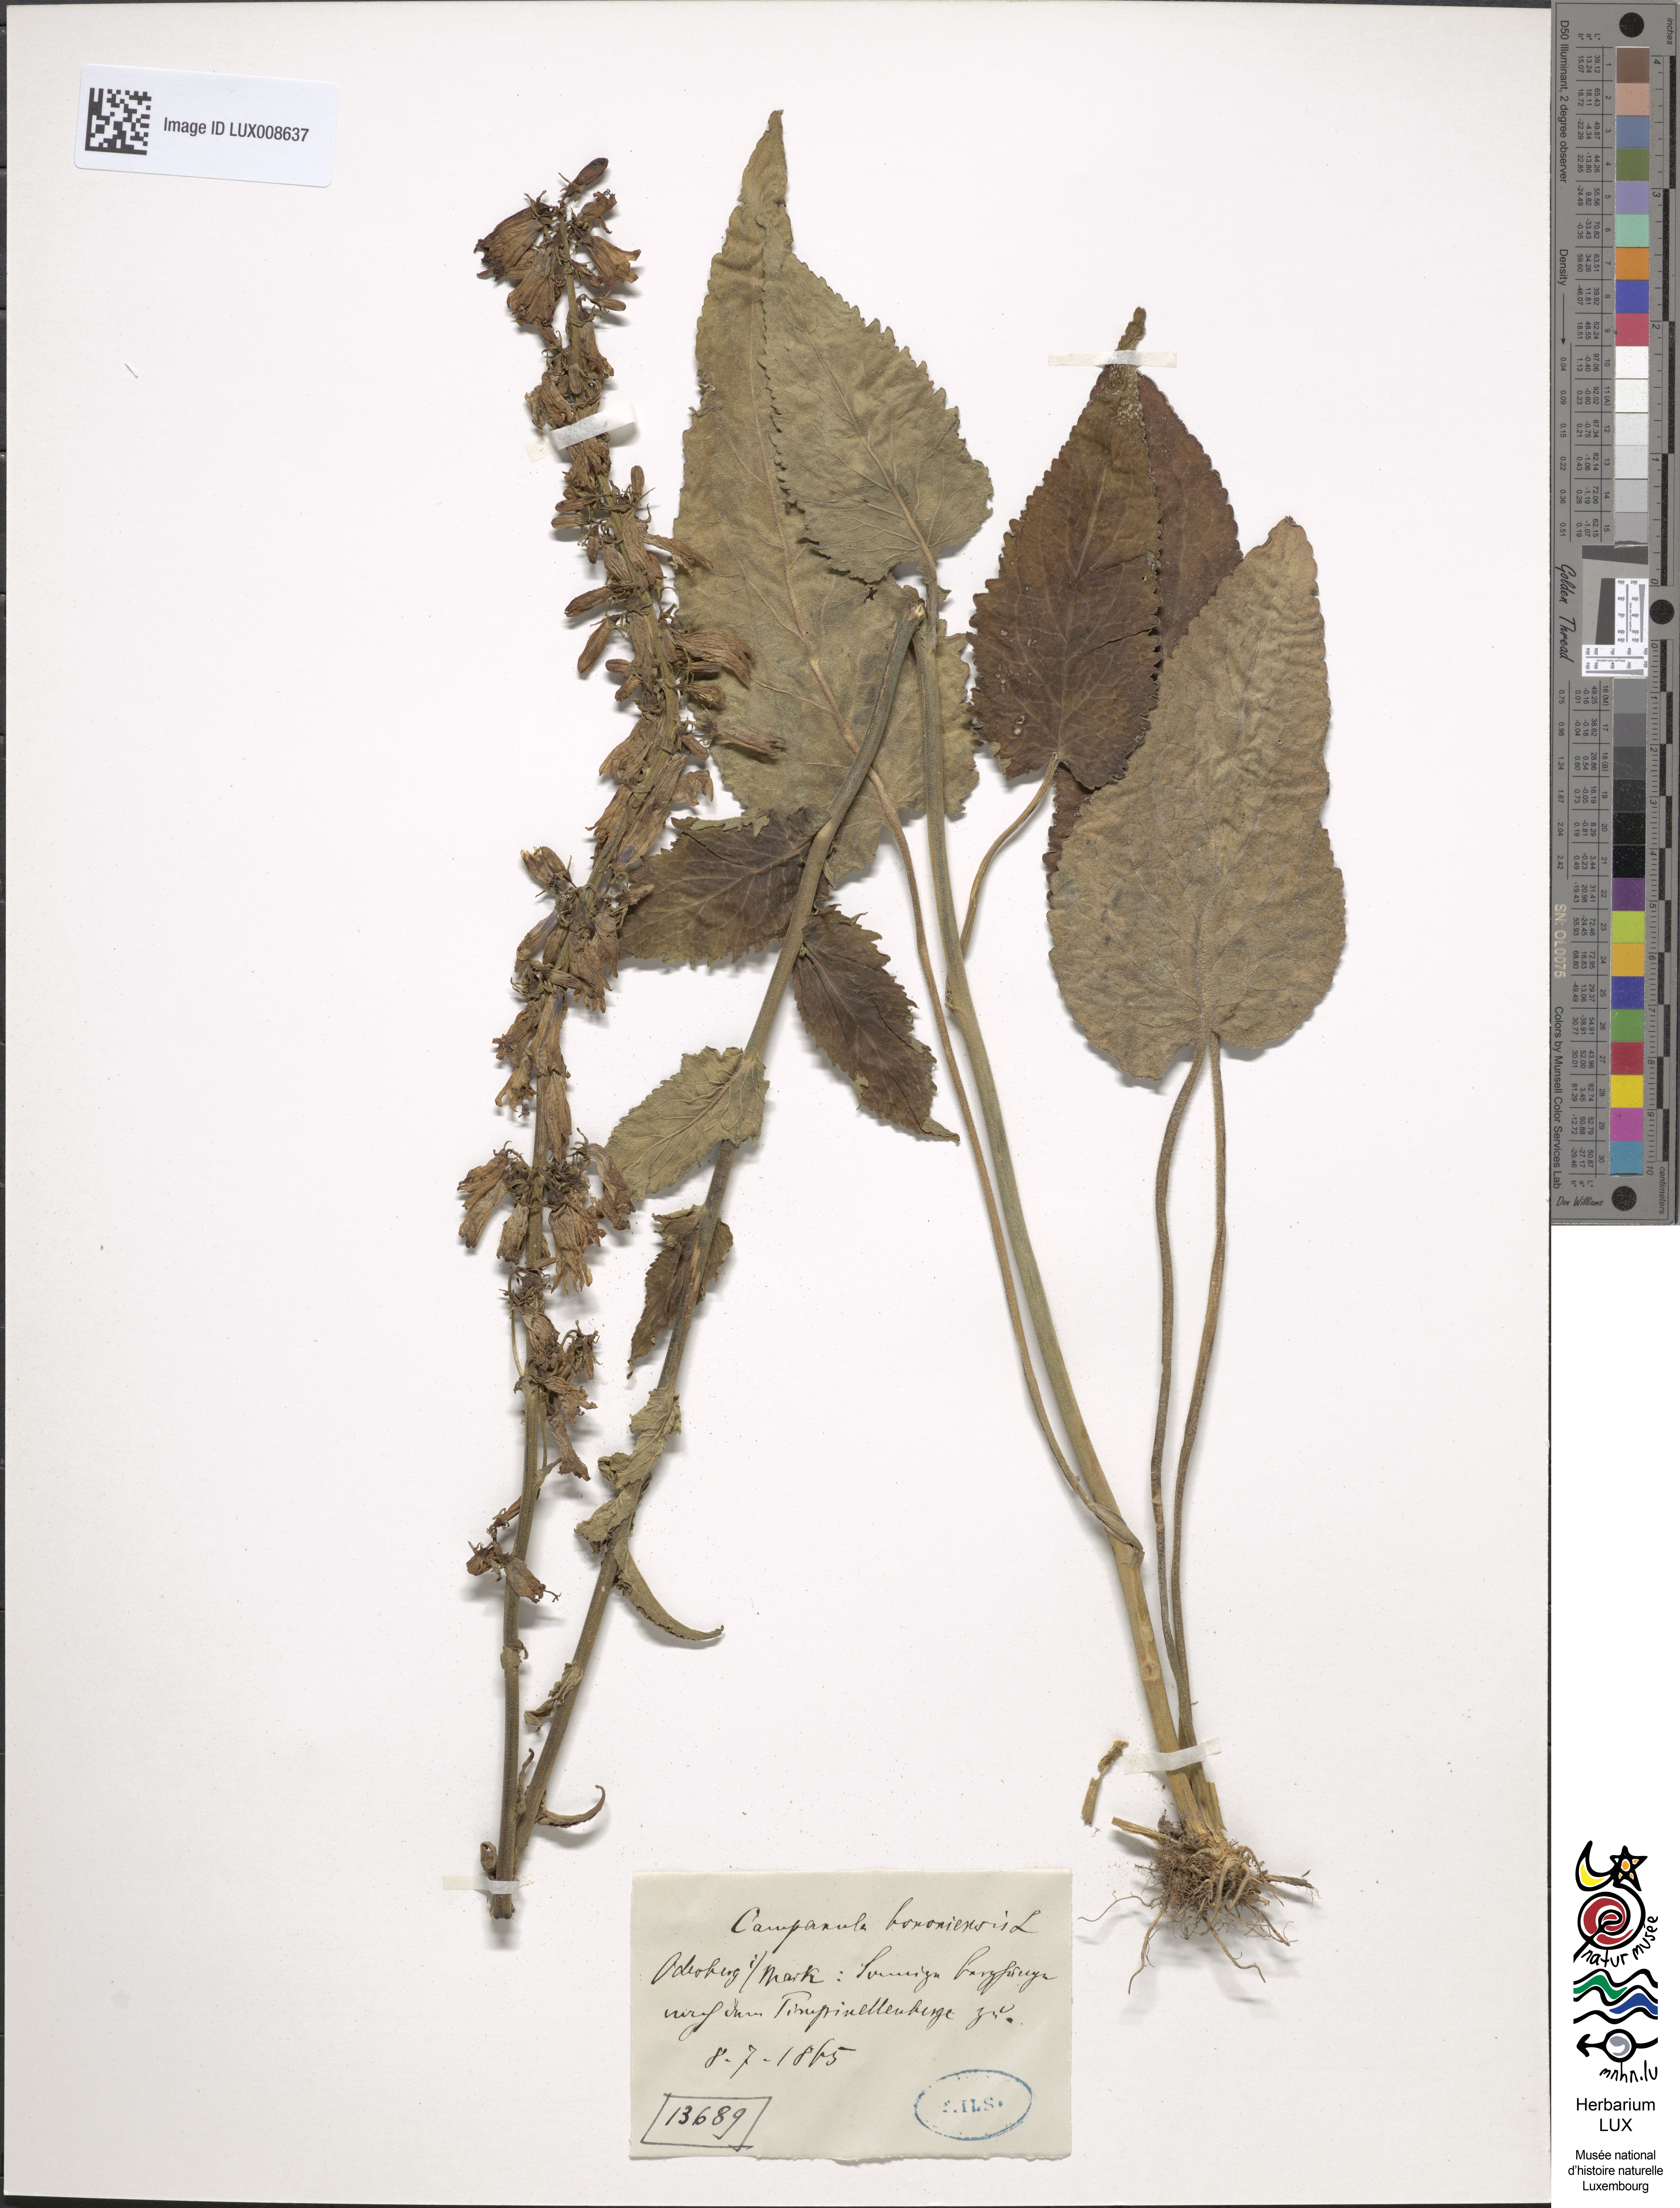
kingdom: Plantae
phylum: Tracheophyta
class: Magnoliopsida
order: Asterales
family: Campanulaceae
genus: Campanula
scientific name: Campanula bononiensis
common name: Pale bellflower
